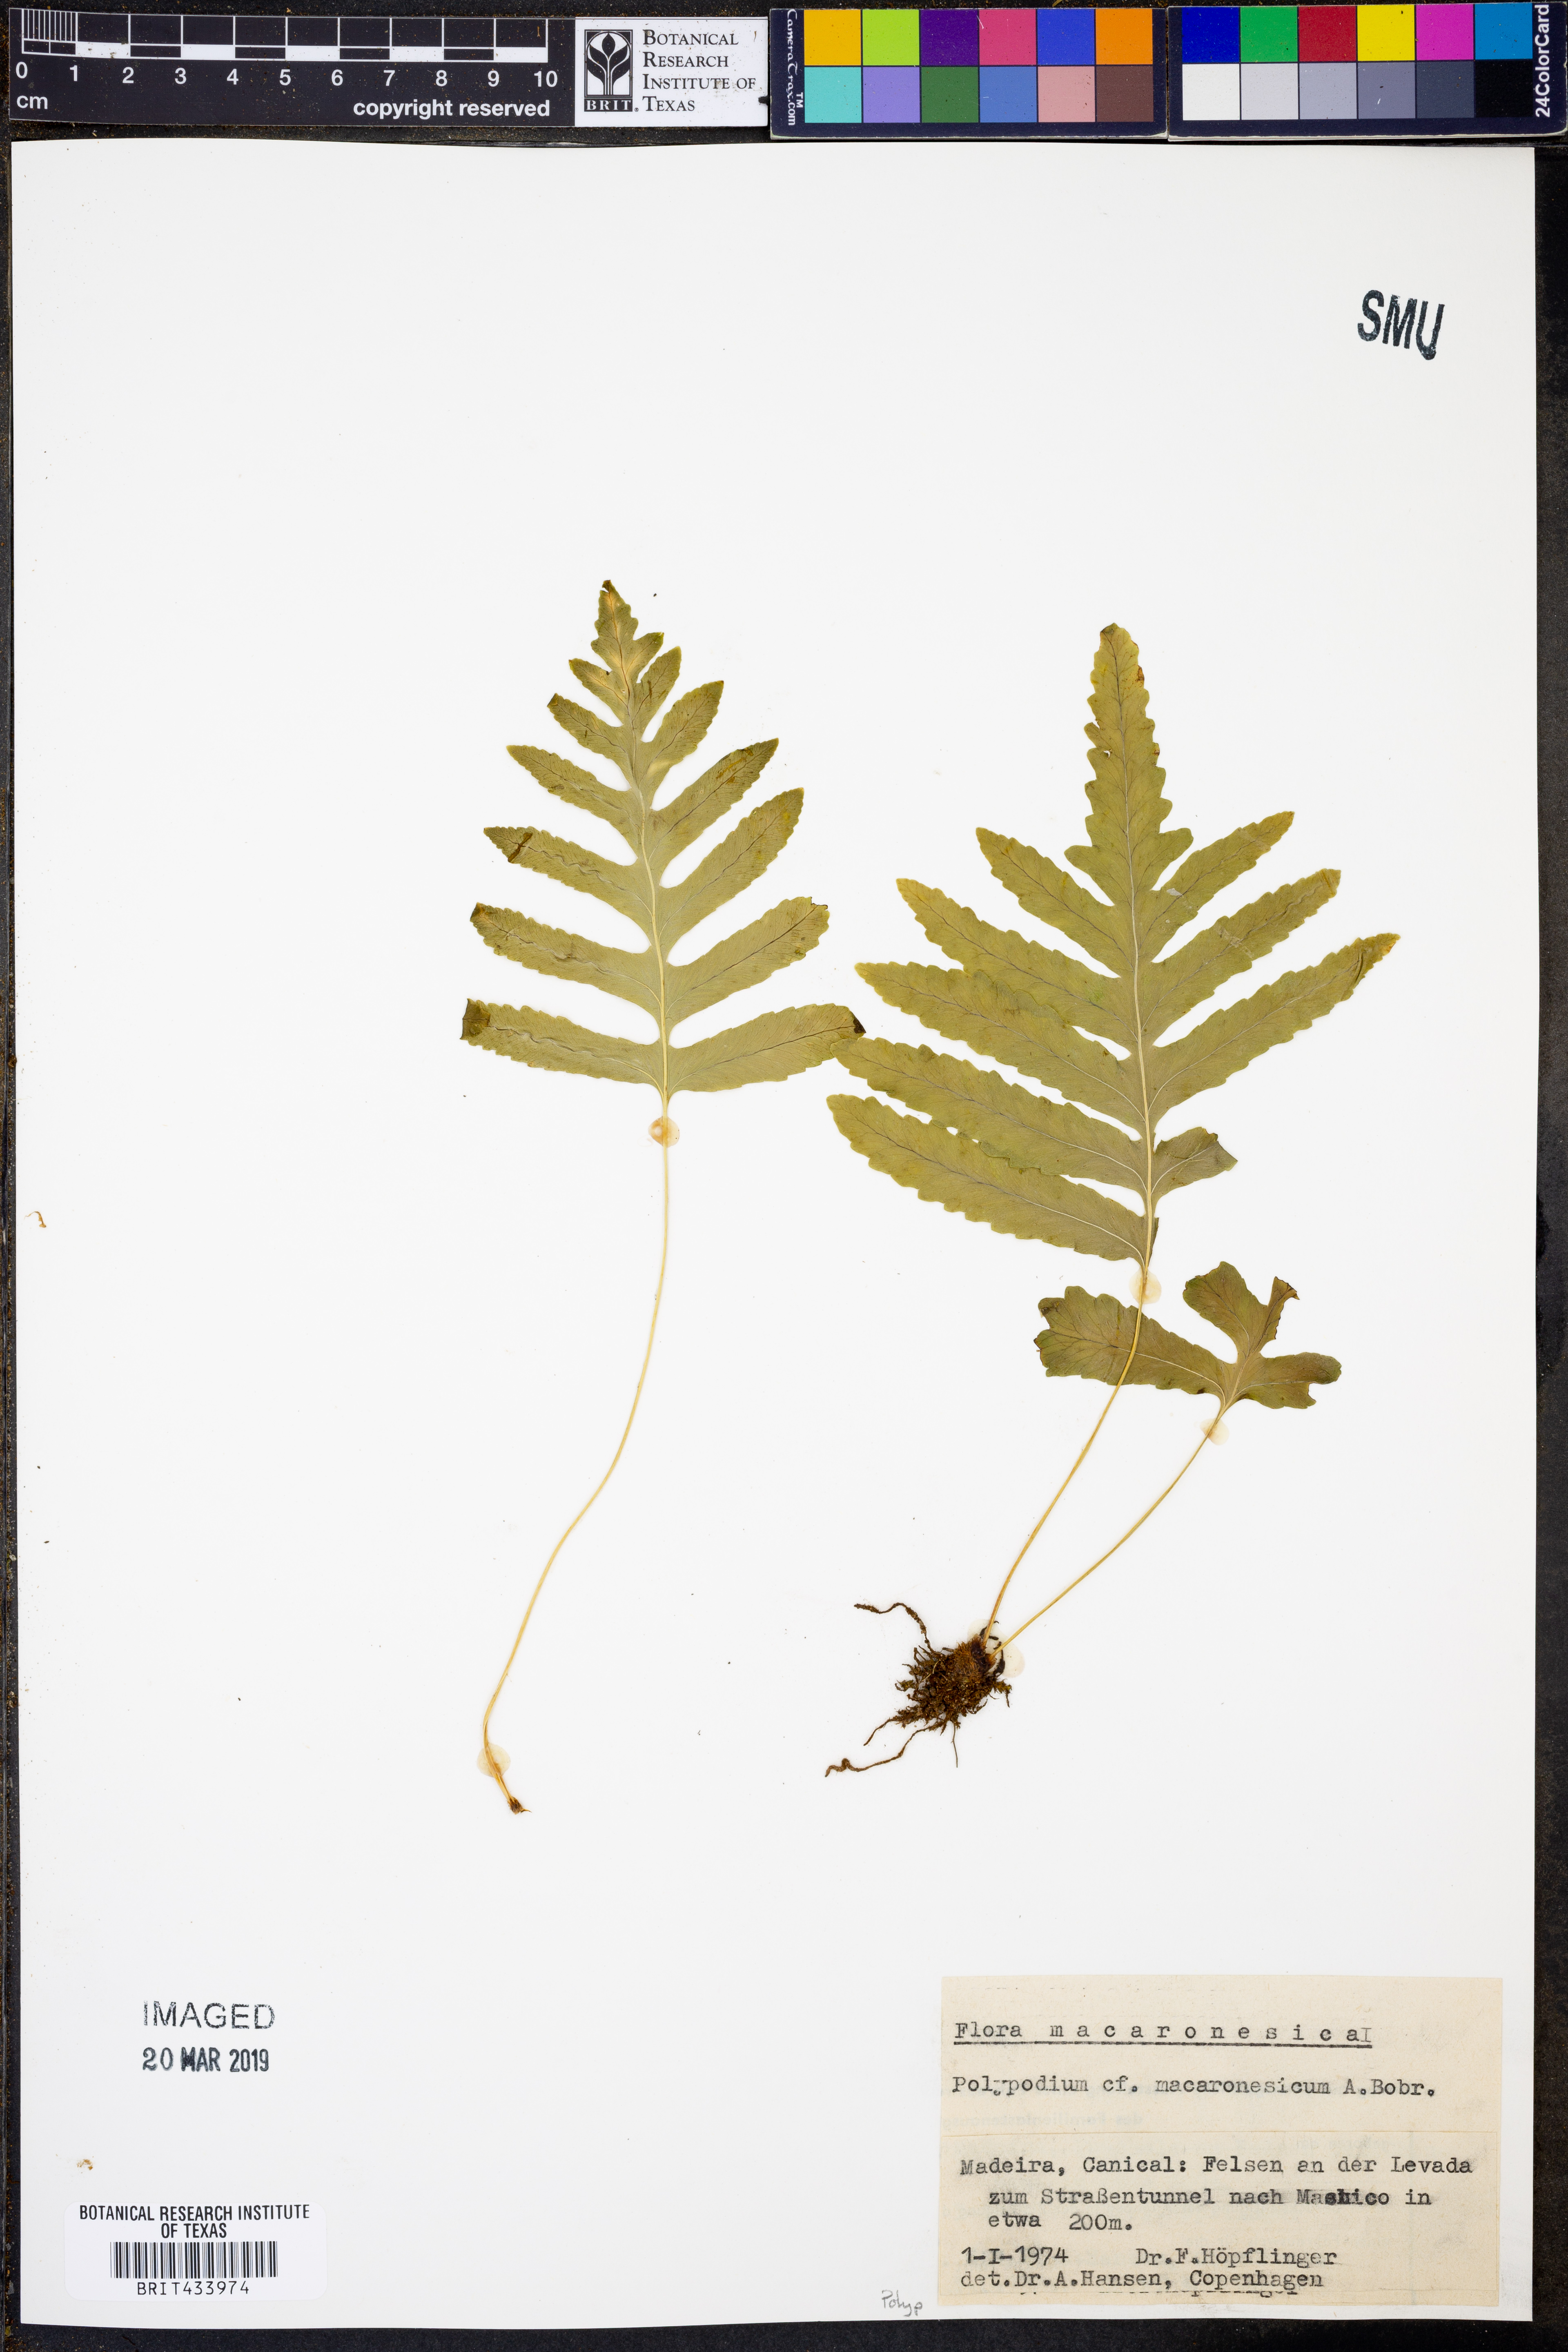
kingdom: Plantae
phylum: Tracheophyta
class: Polypodiopsida
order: Polypodiales
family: Polypodiaceae
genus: Polypodium
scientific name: Polypodium macaronesicum
